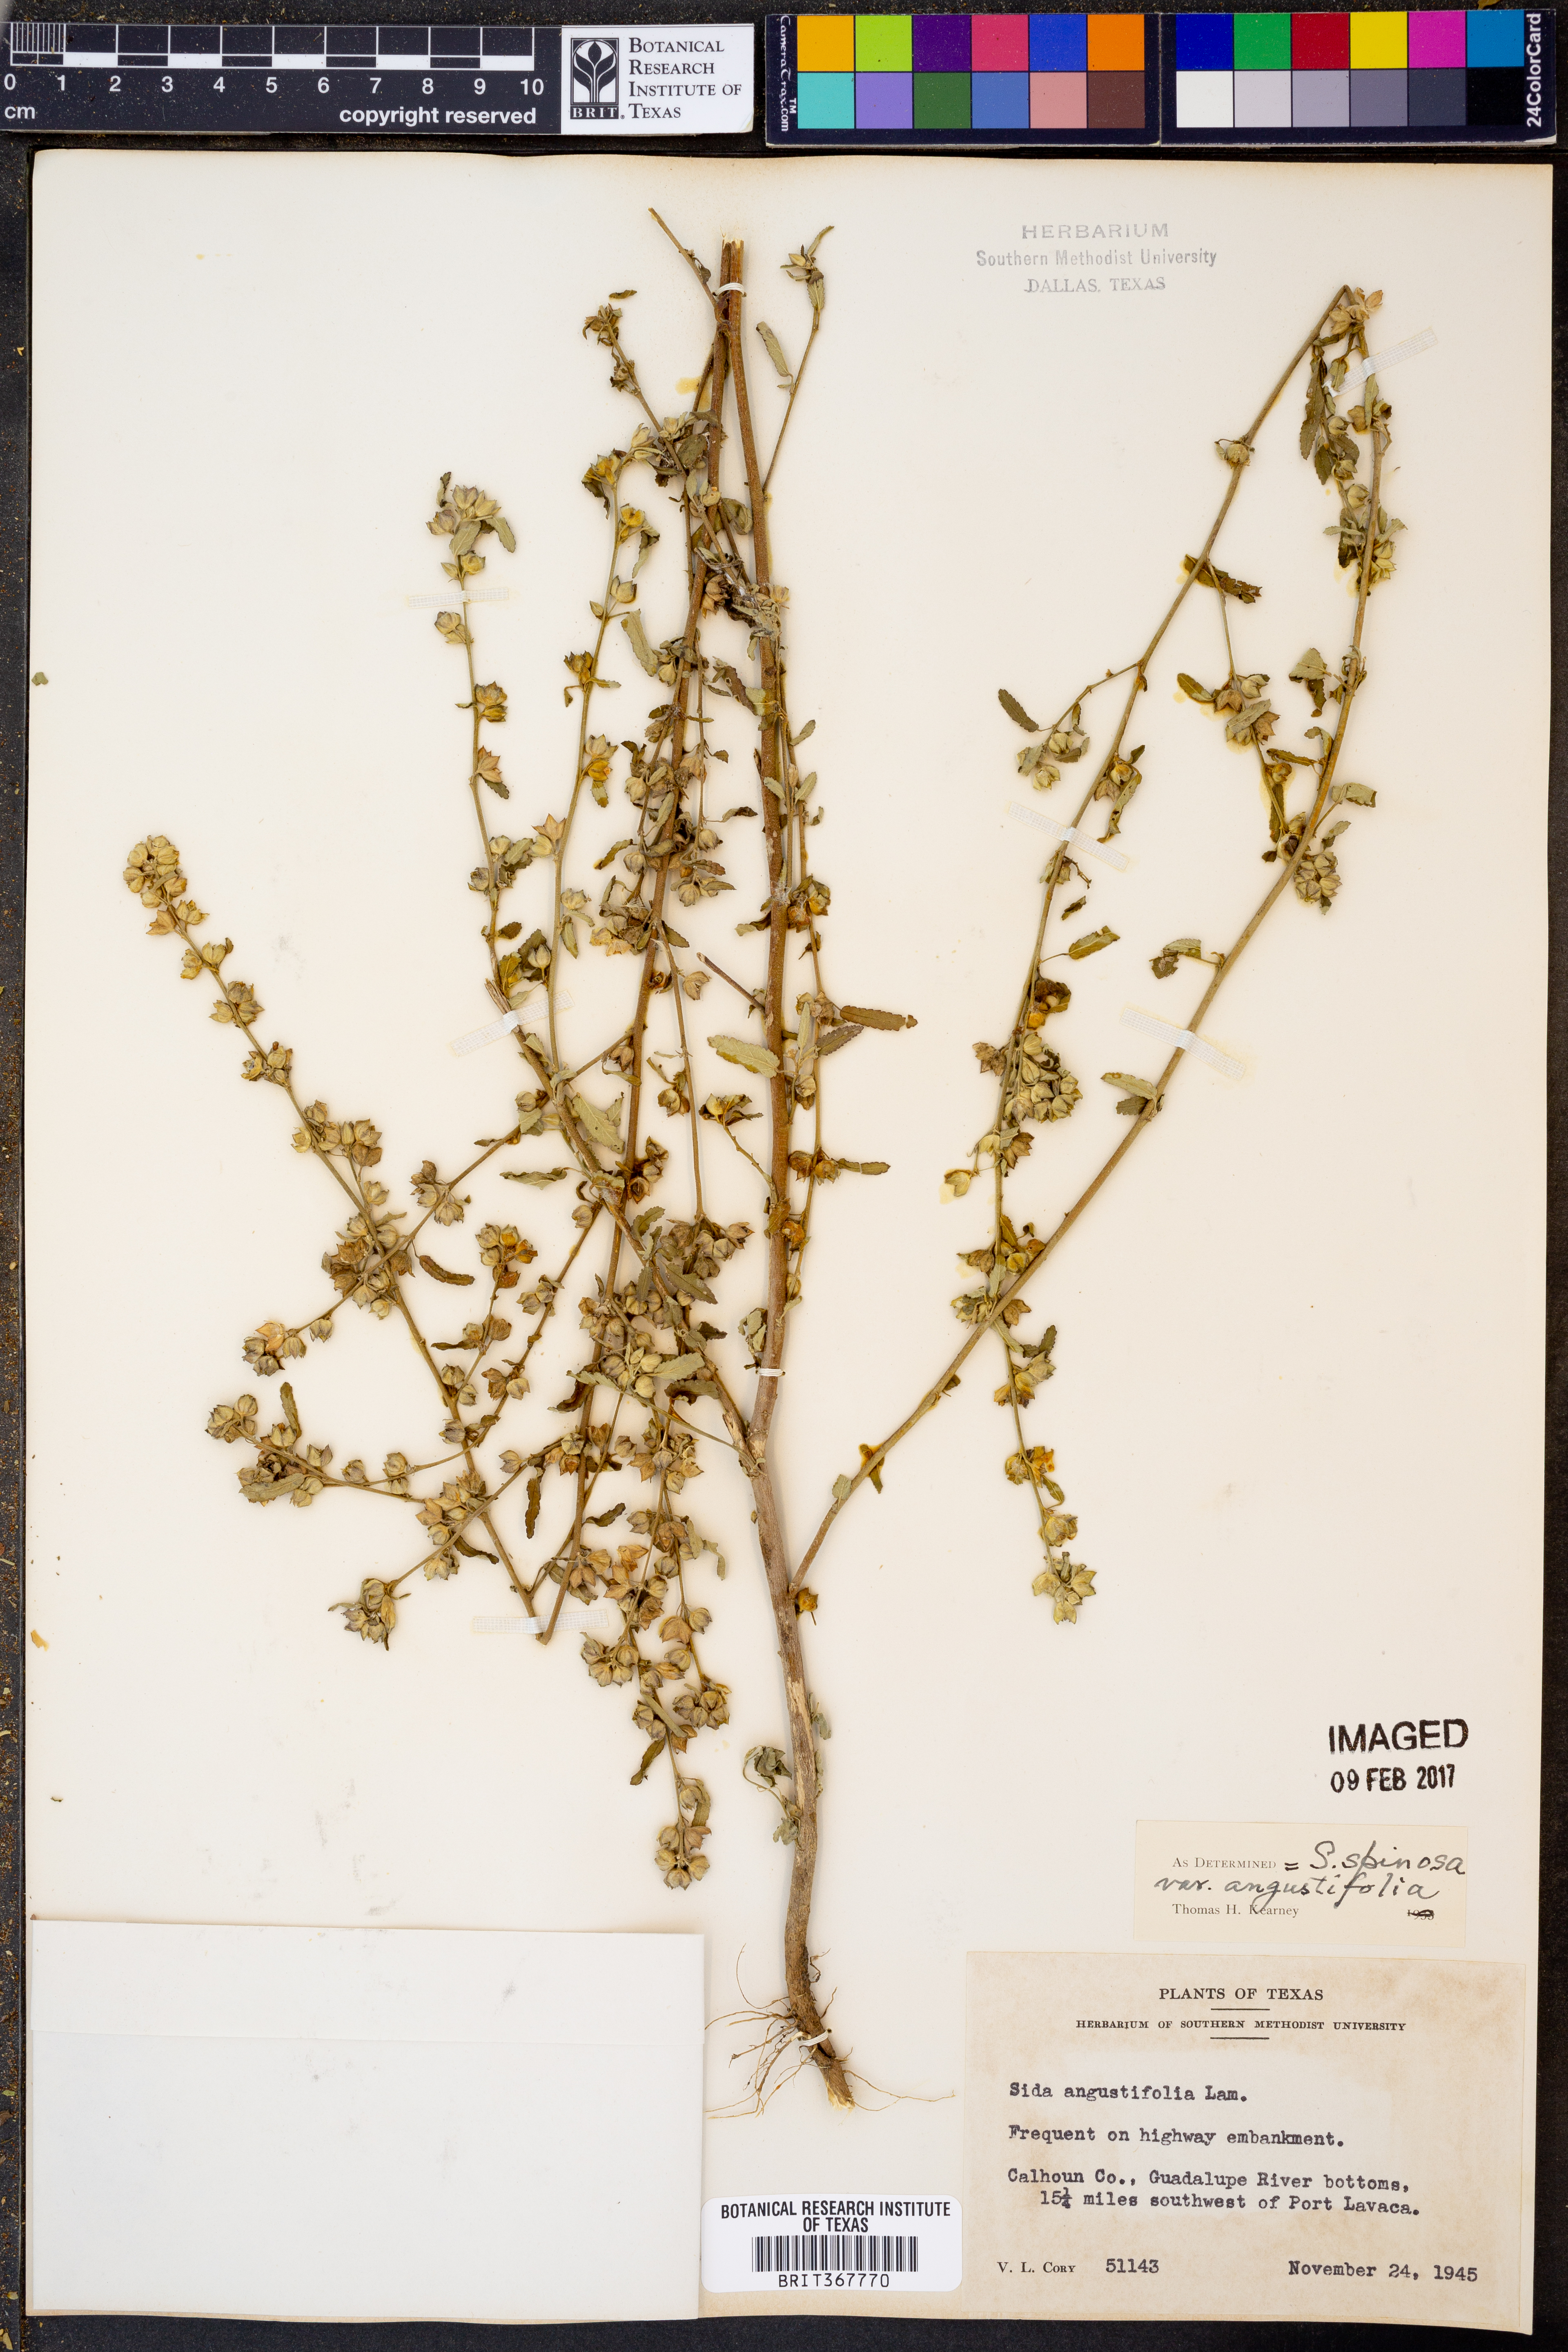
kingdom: Plantae
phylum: Tracheophyta
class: Magnoliopsida
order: Malvales
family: Malvaceae
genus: Sida
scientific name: Sida spinosa
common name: Prickly fanpetals
